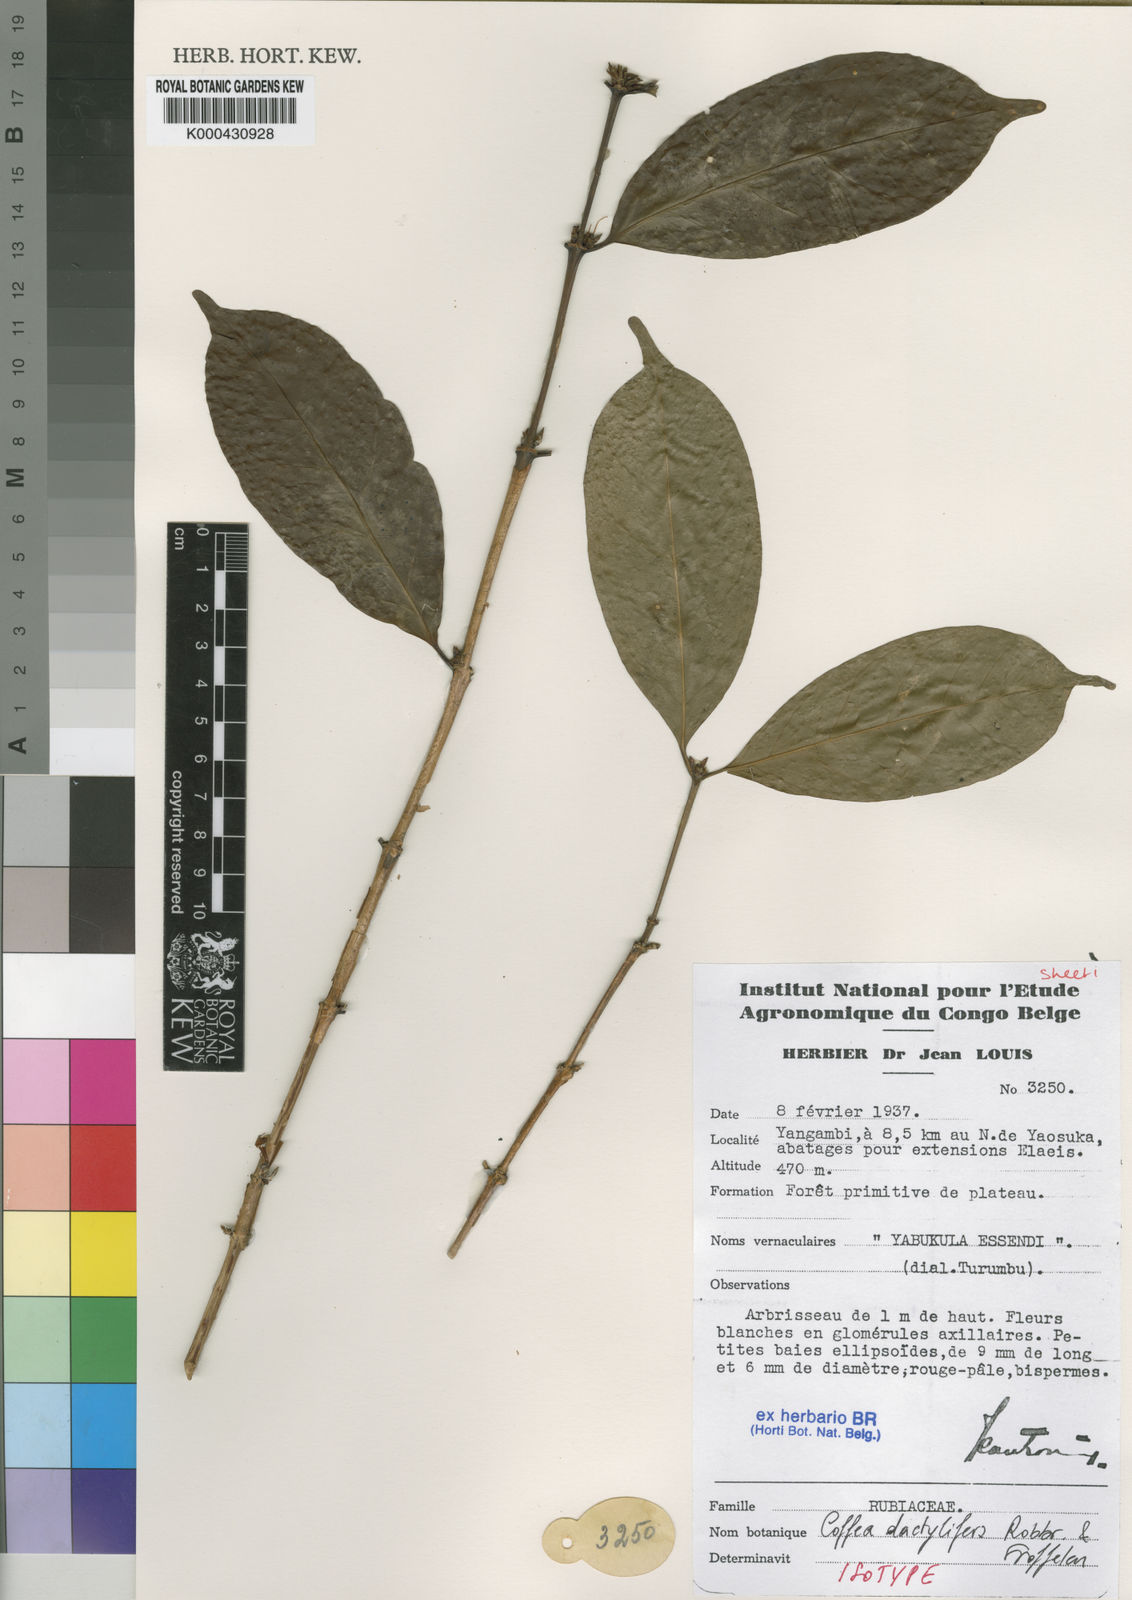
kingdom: Plantae
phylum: Tracheophyta
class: Magnoliopsida
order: Gentianales
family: Rubiaceae
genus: Coffea
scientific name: Coffea dactylifera
